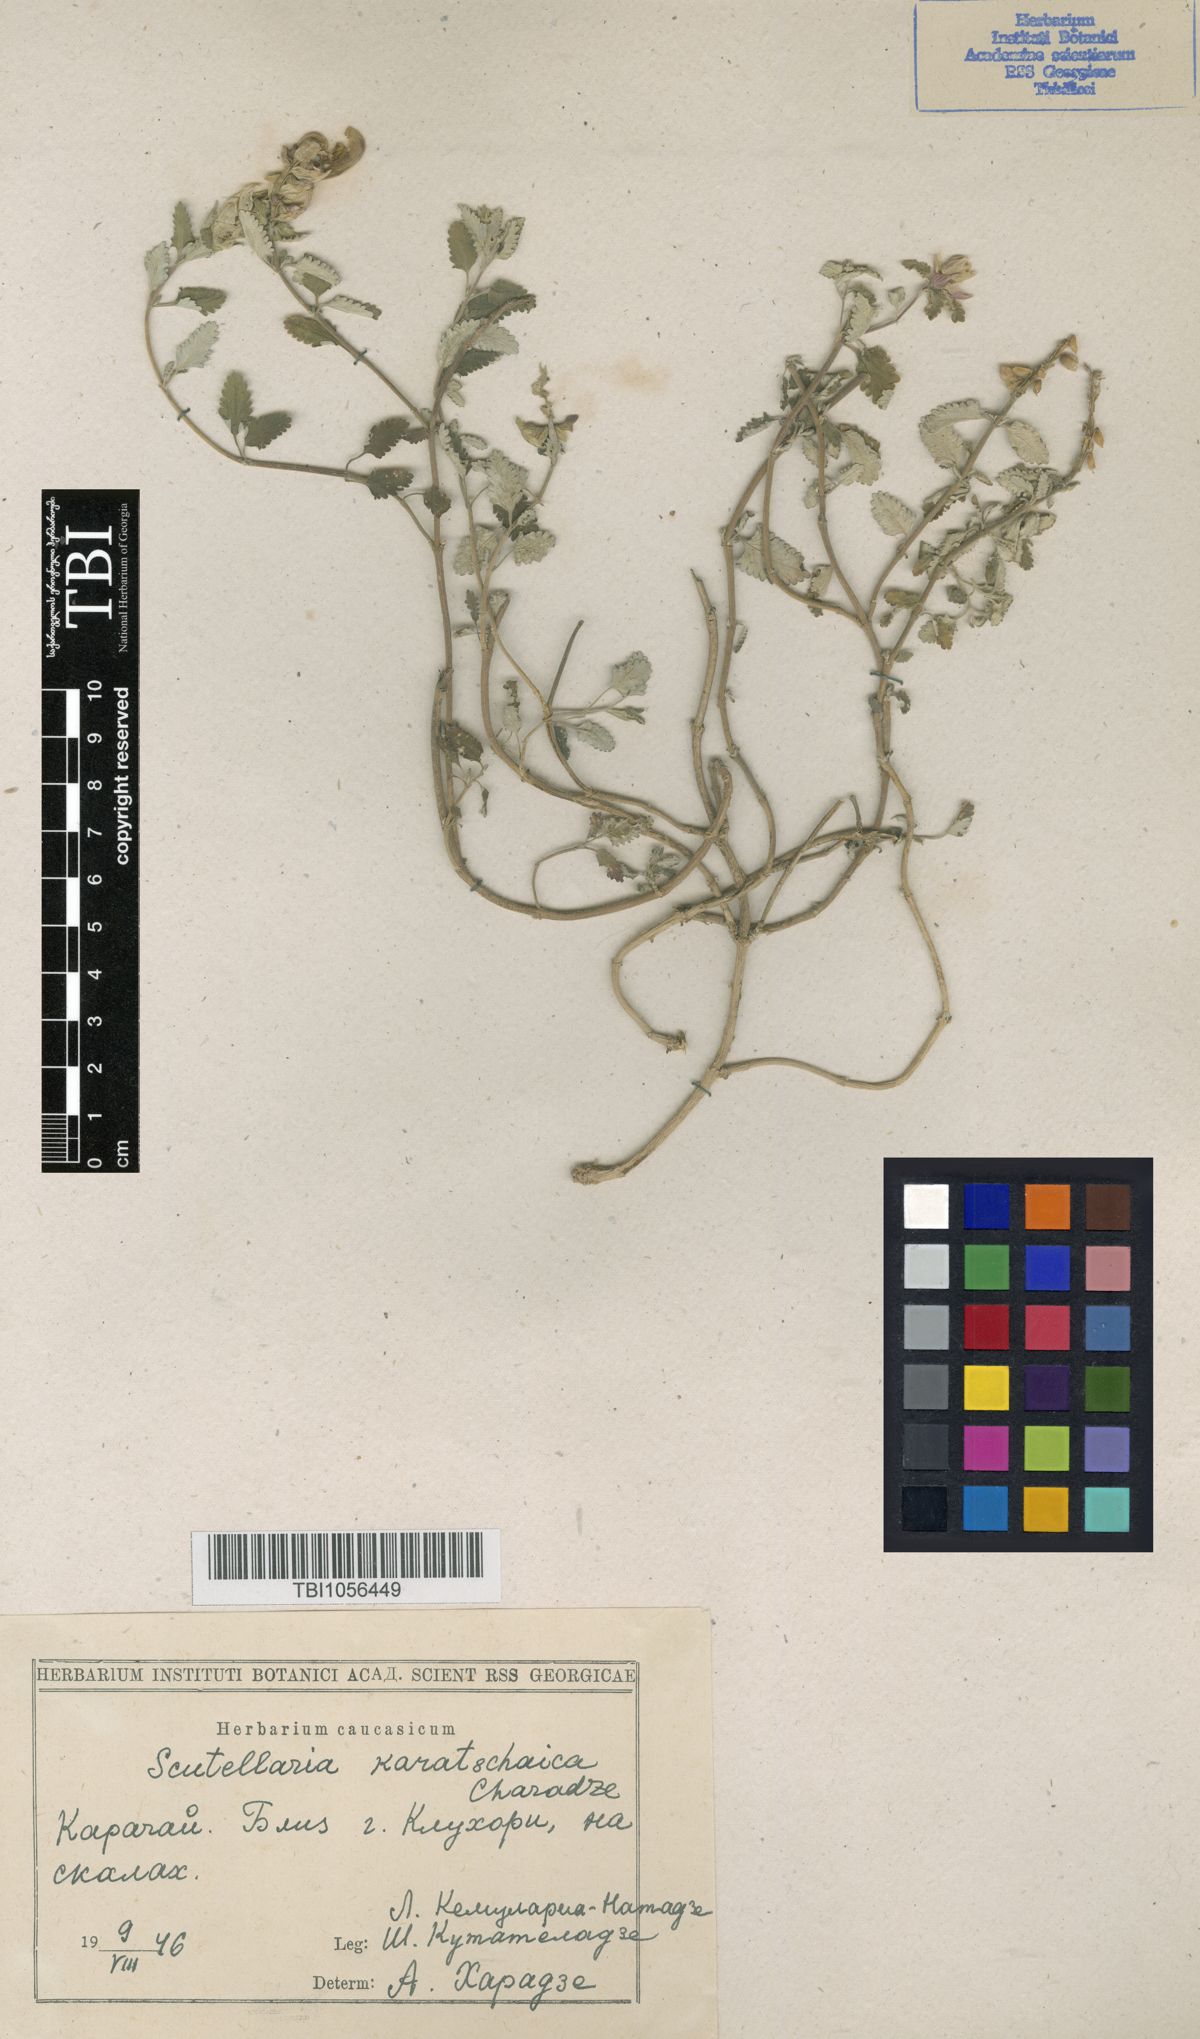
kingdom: Plantae
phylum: Tracheophyta
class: Magnoliopsida
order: Lamiales
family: Lamiaceae
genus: Scutellaria
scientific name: Scutellaria orientalis
